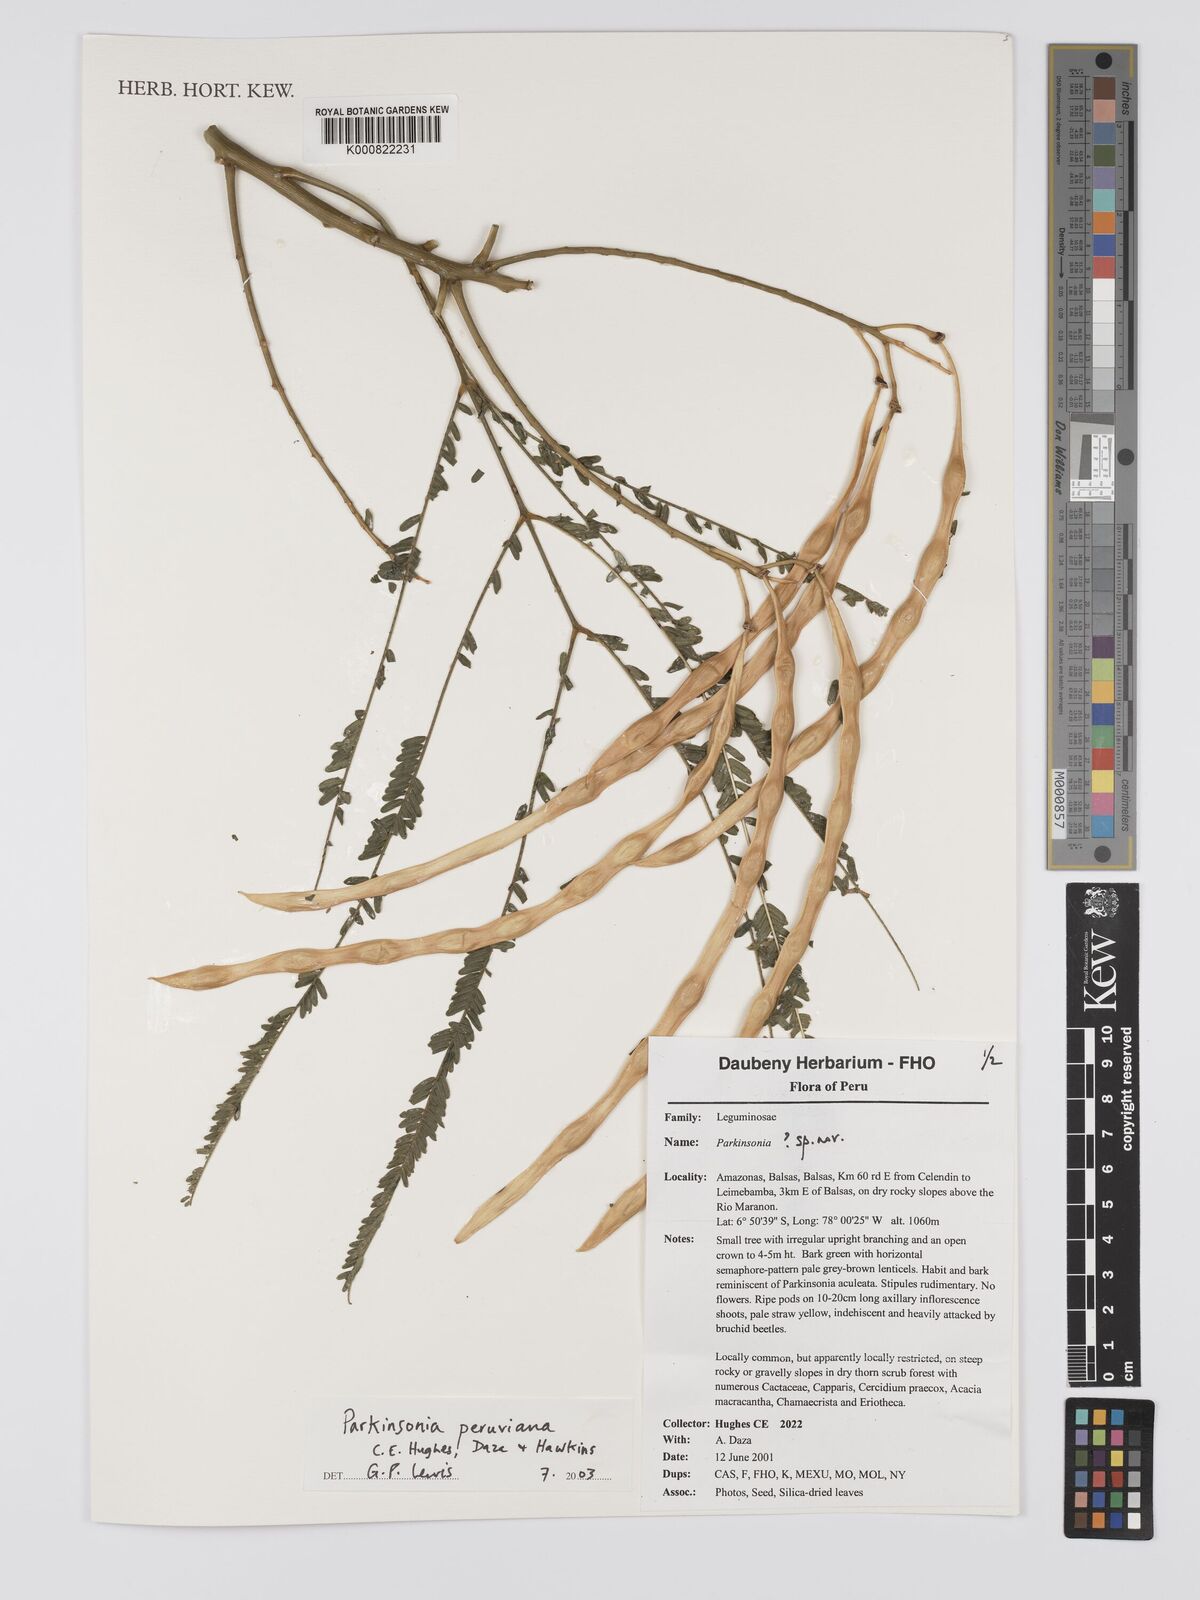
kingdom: Plantae
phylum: Tracheophyta
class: Magnoliopsida
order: Fabales
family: Fabaceae
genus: Parkinsonia
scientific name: Parkinsonia peruviana
